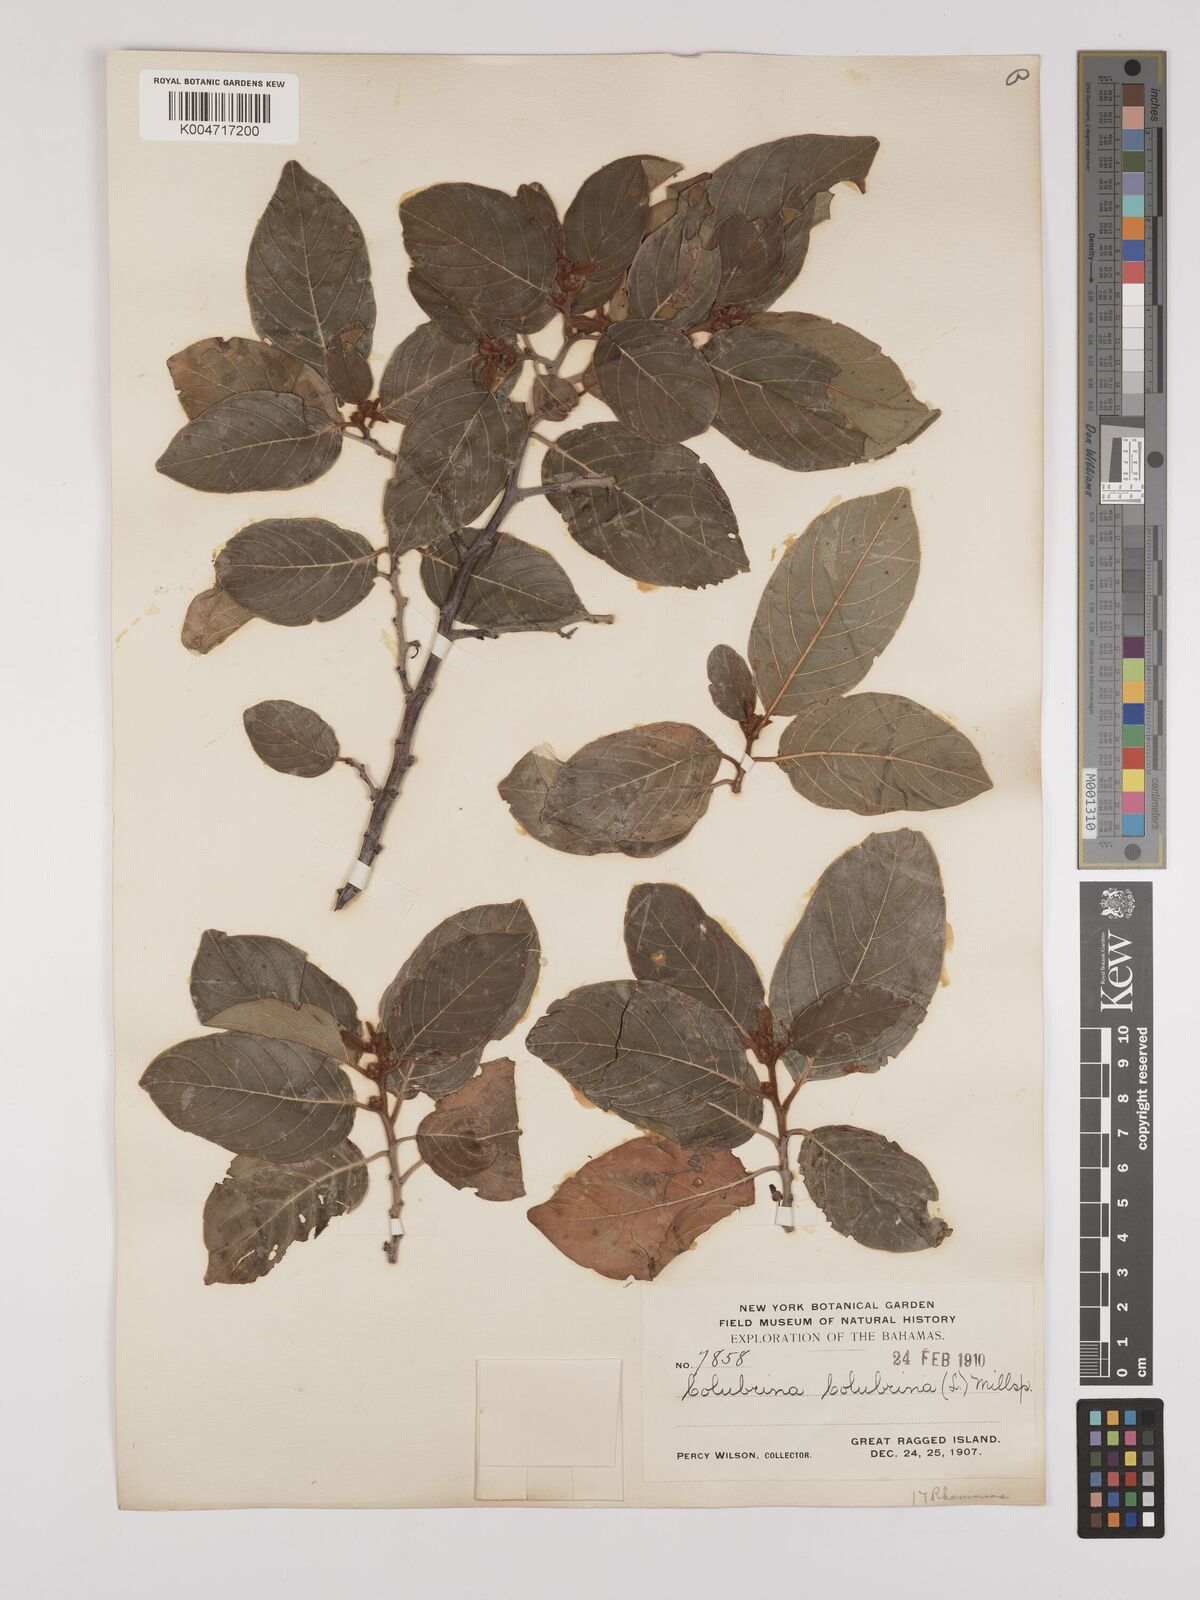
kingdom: Plantae
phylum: Tracheophyta
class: Magnoliopsida
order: Rosales
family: Rhamnaceae
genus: Colubrina
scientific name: Colubrina arborescens
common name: Wild coffee
